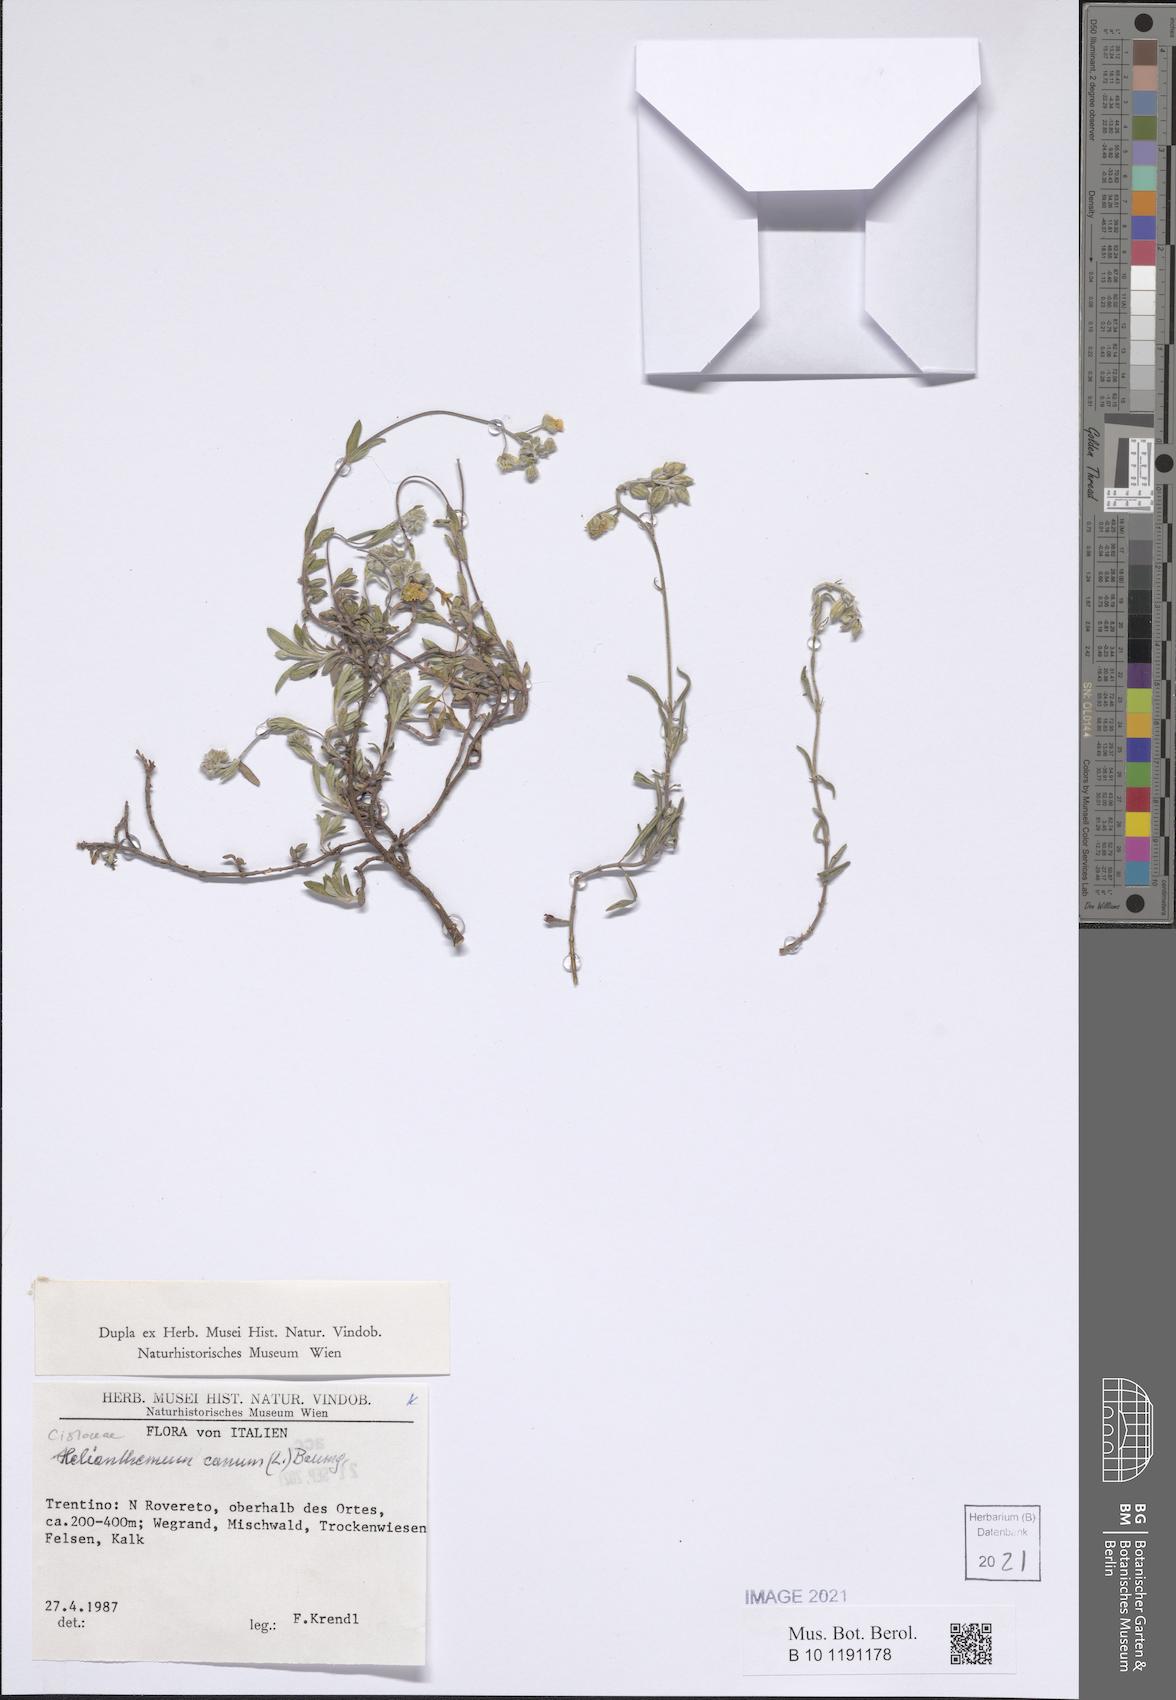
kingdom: Plantae
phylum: Tracheophyta
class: Magnoliopsida
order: Malvales
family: Cistaceae
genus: Helianthemum
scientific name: Helianthemum canum
